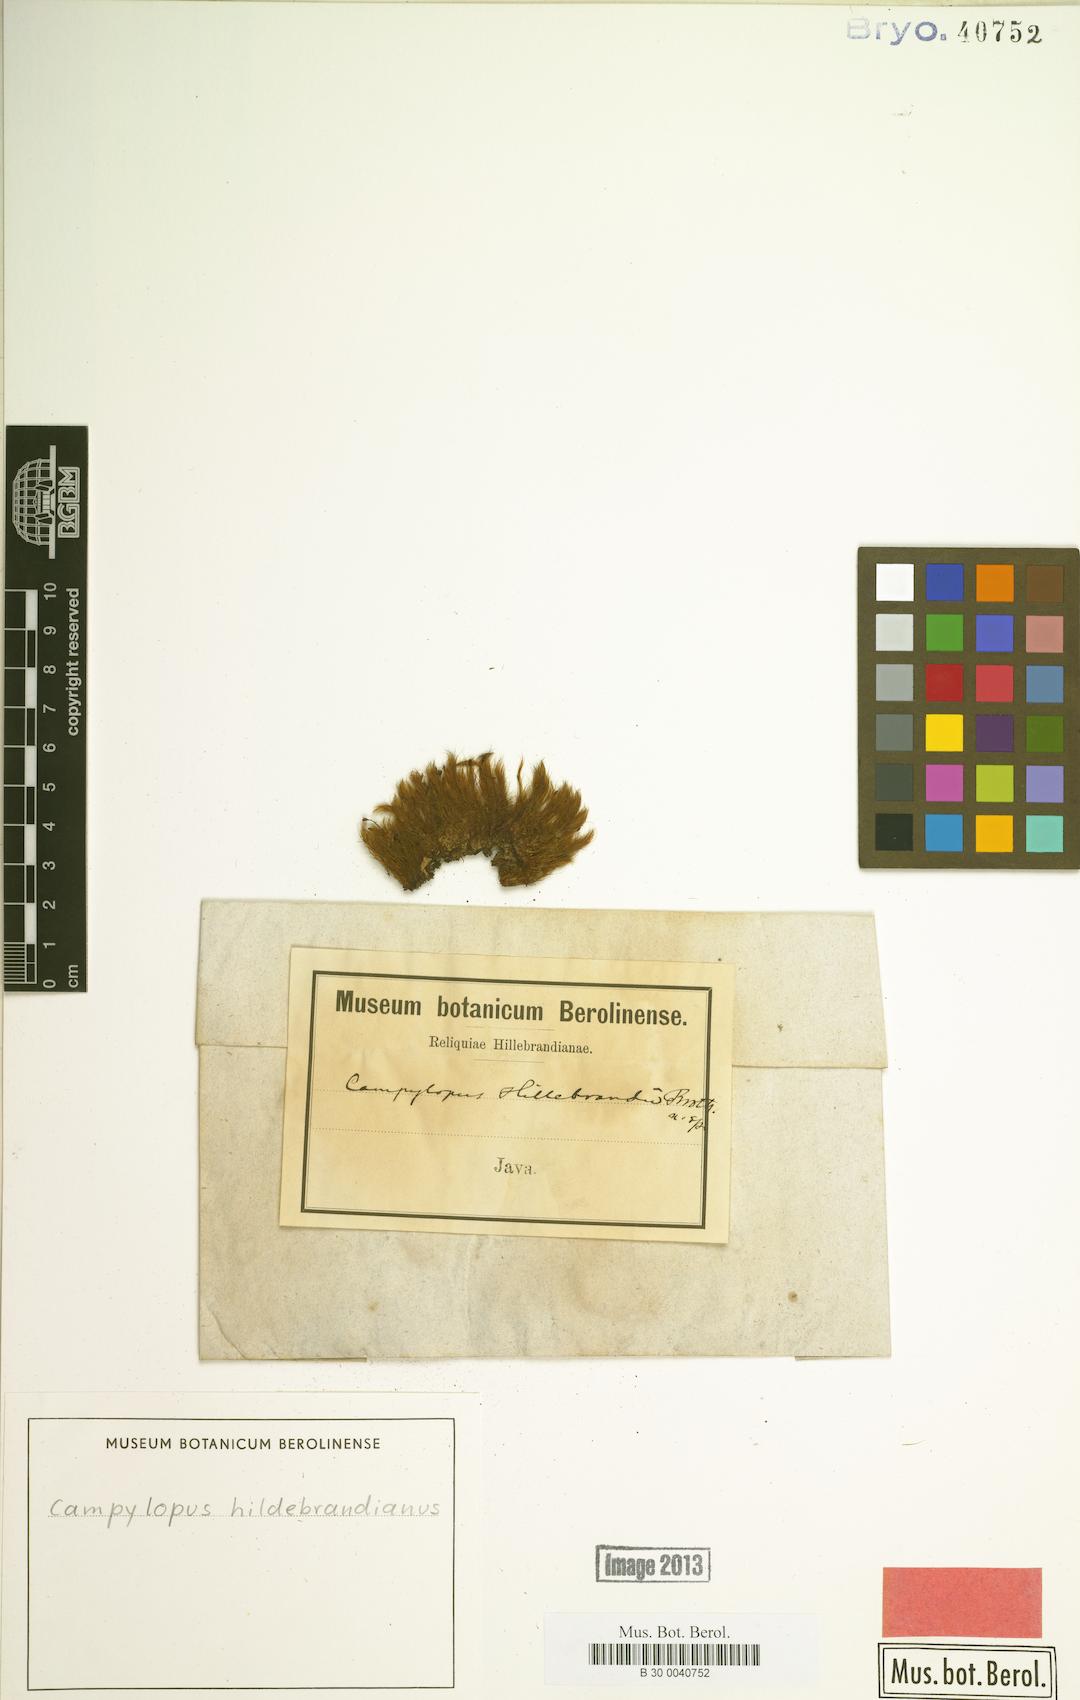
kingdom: Plantae
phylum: Bryophyta
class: Bryopsida
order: Dicranales
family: Leucobryaceae
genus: Campylopus
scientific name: Campylopus hildebrandtii
